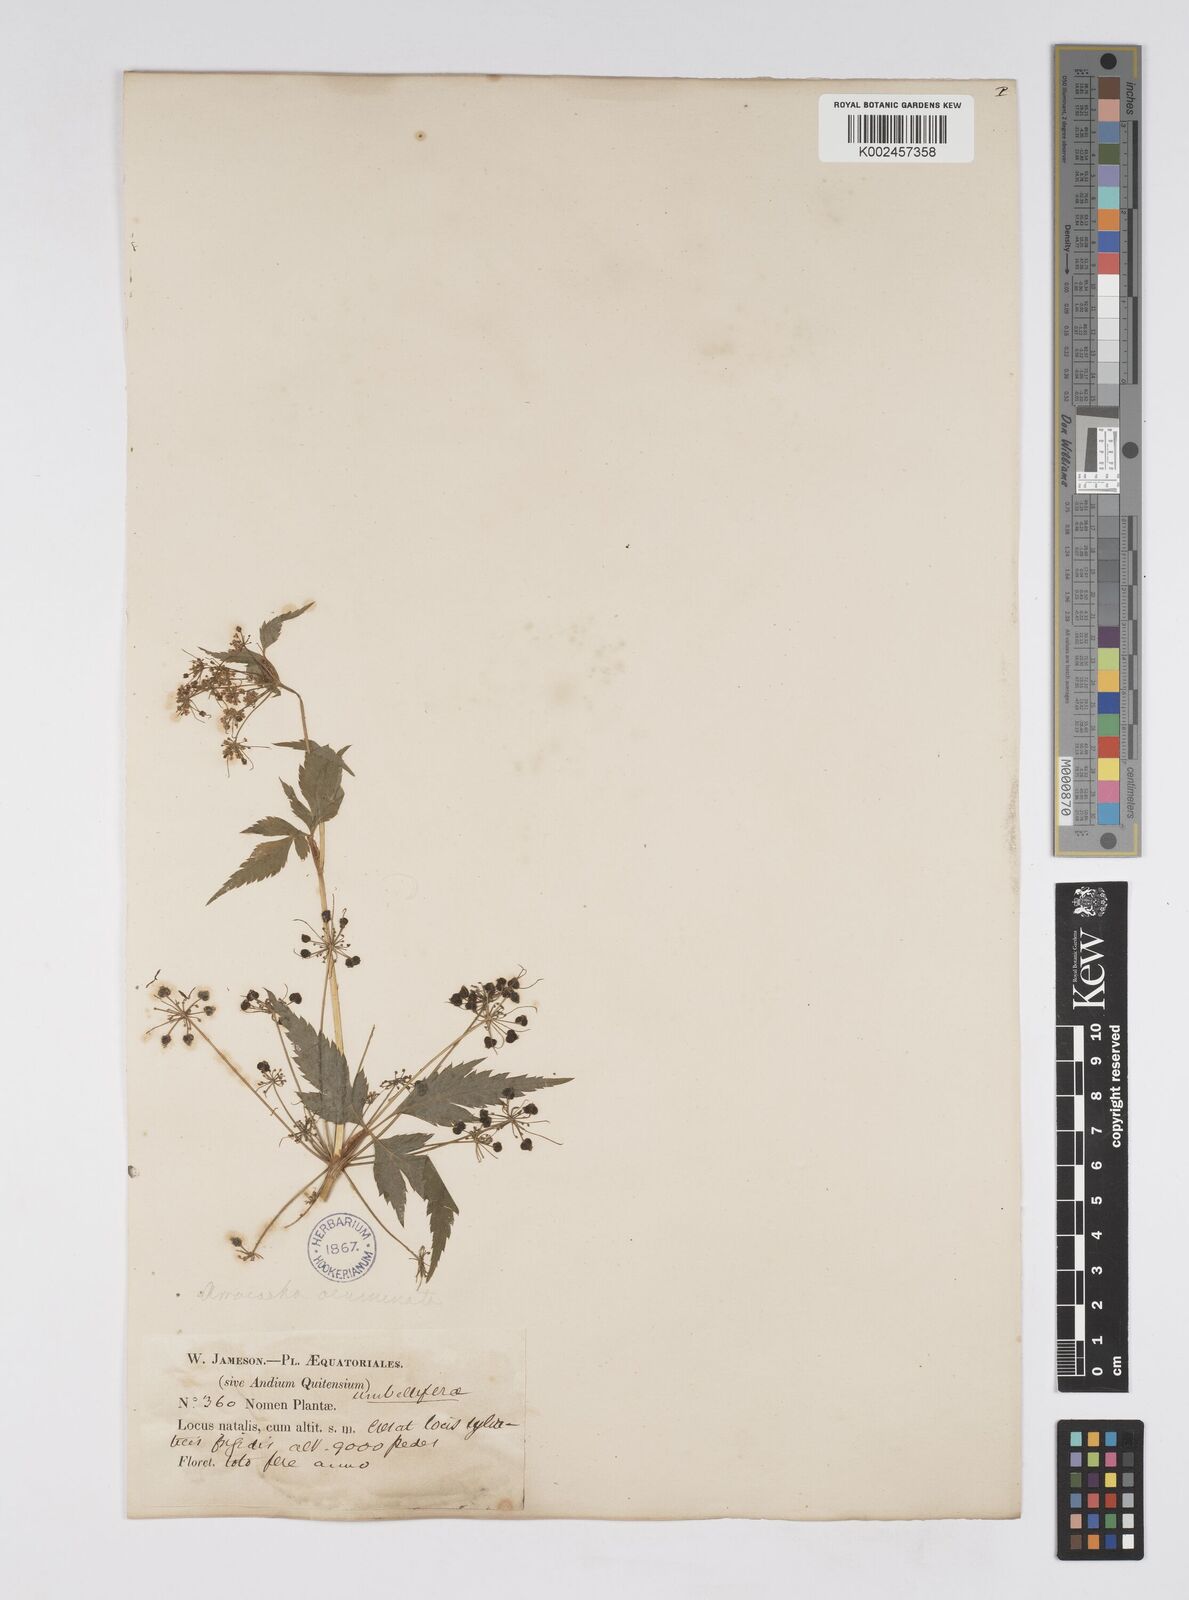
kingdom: Plantae
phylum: Tracheophyta
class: Magnoliopsida
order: Apiales
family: Apiaceae
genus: Neonelsonia
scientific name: Neonelsonia acuminata
